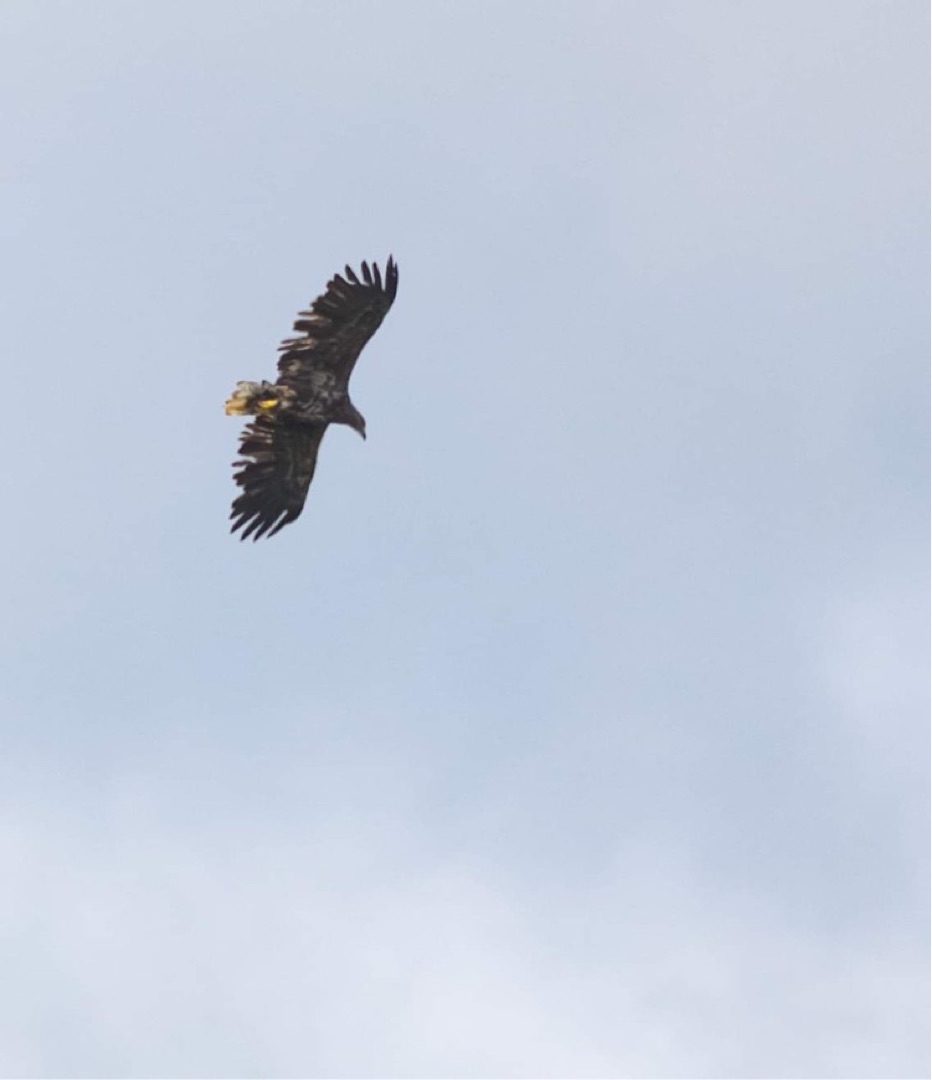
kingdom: Animalia
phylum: Chordata
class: Aves
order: Accipitriformes
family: Accipitridae
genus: Haliaeetus
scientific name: Haliaeetus albicilla
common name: Havørn
